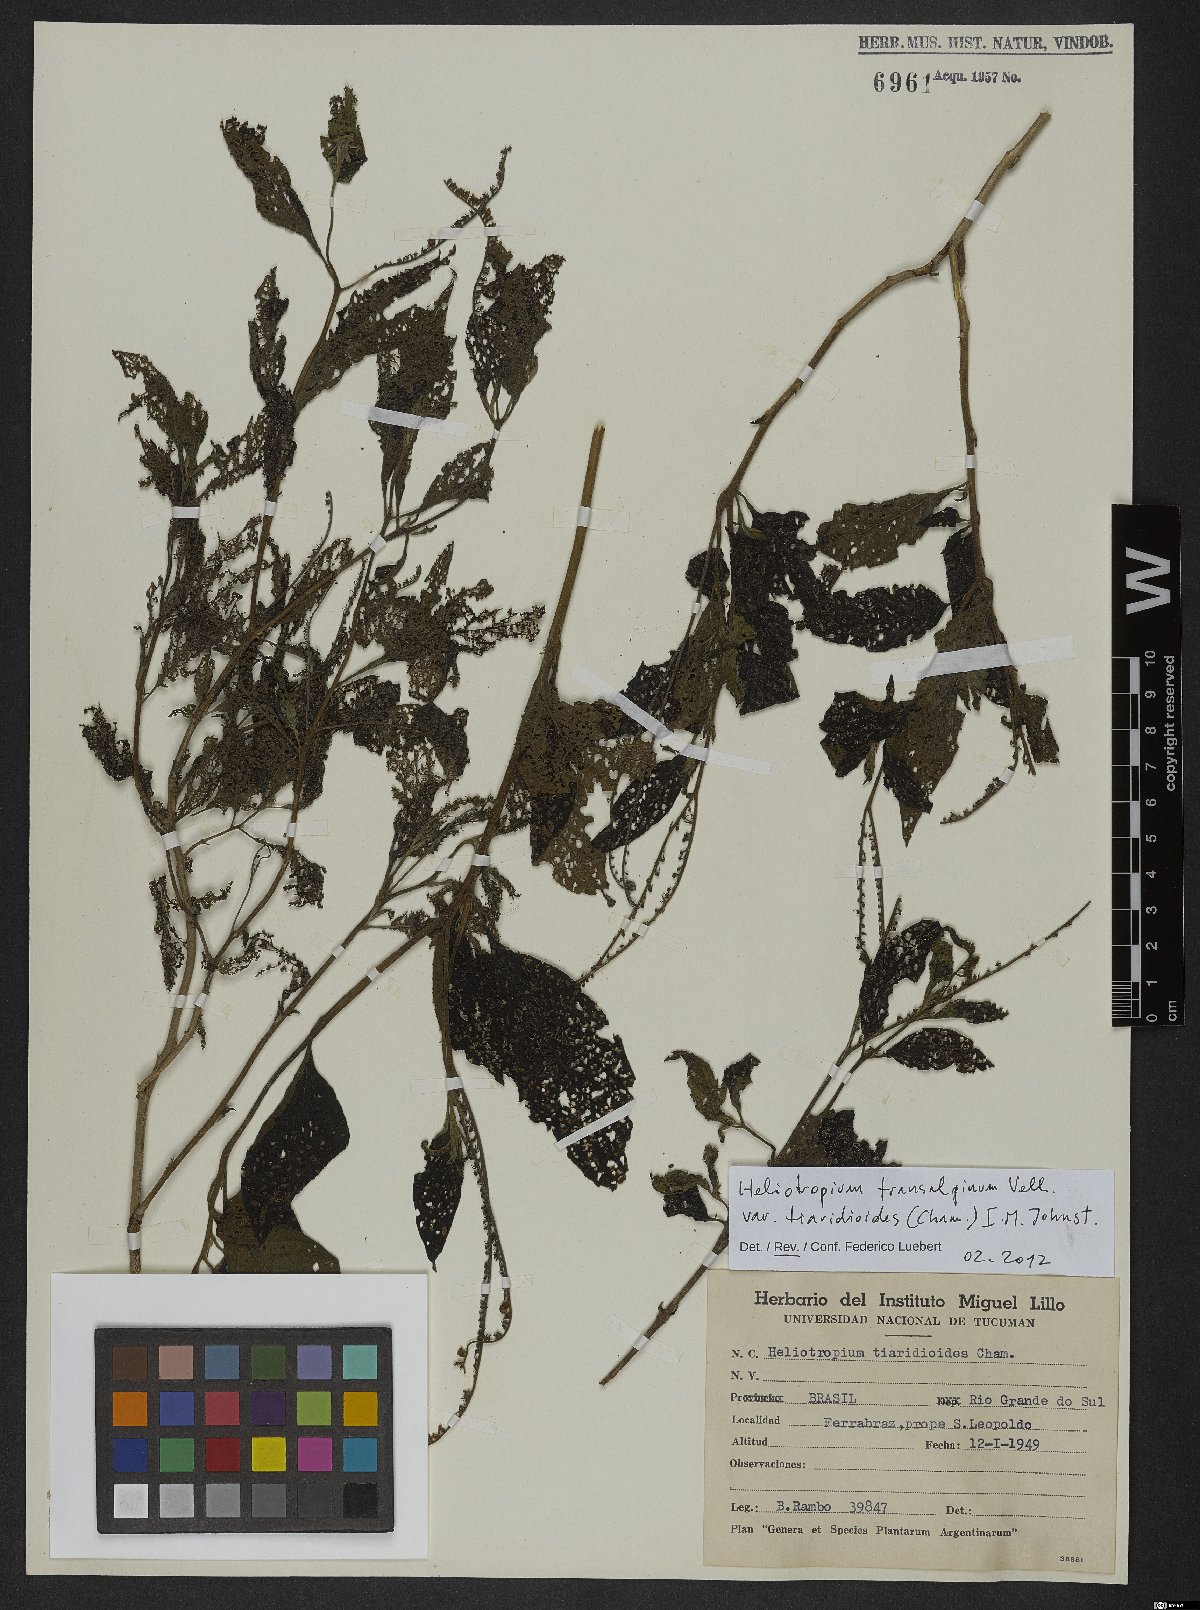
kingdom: Plantae
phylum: Tracheophyta
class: Magnoliopsida
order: Boraginales
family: Heliotropiaceae
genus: Heliotropium
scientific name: Heliotropium tiaridioides
